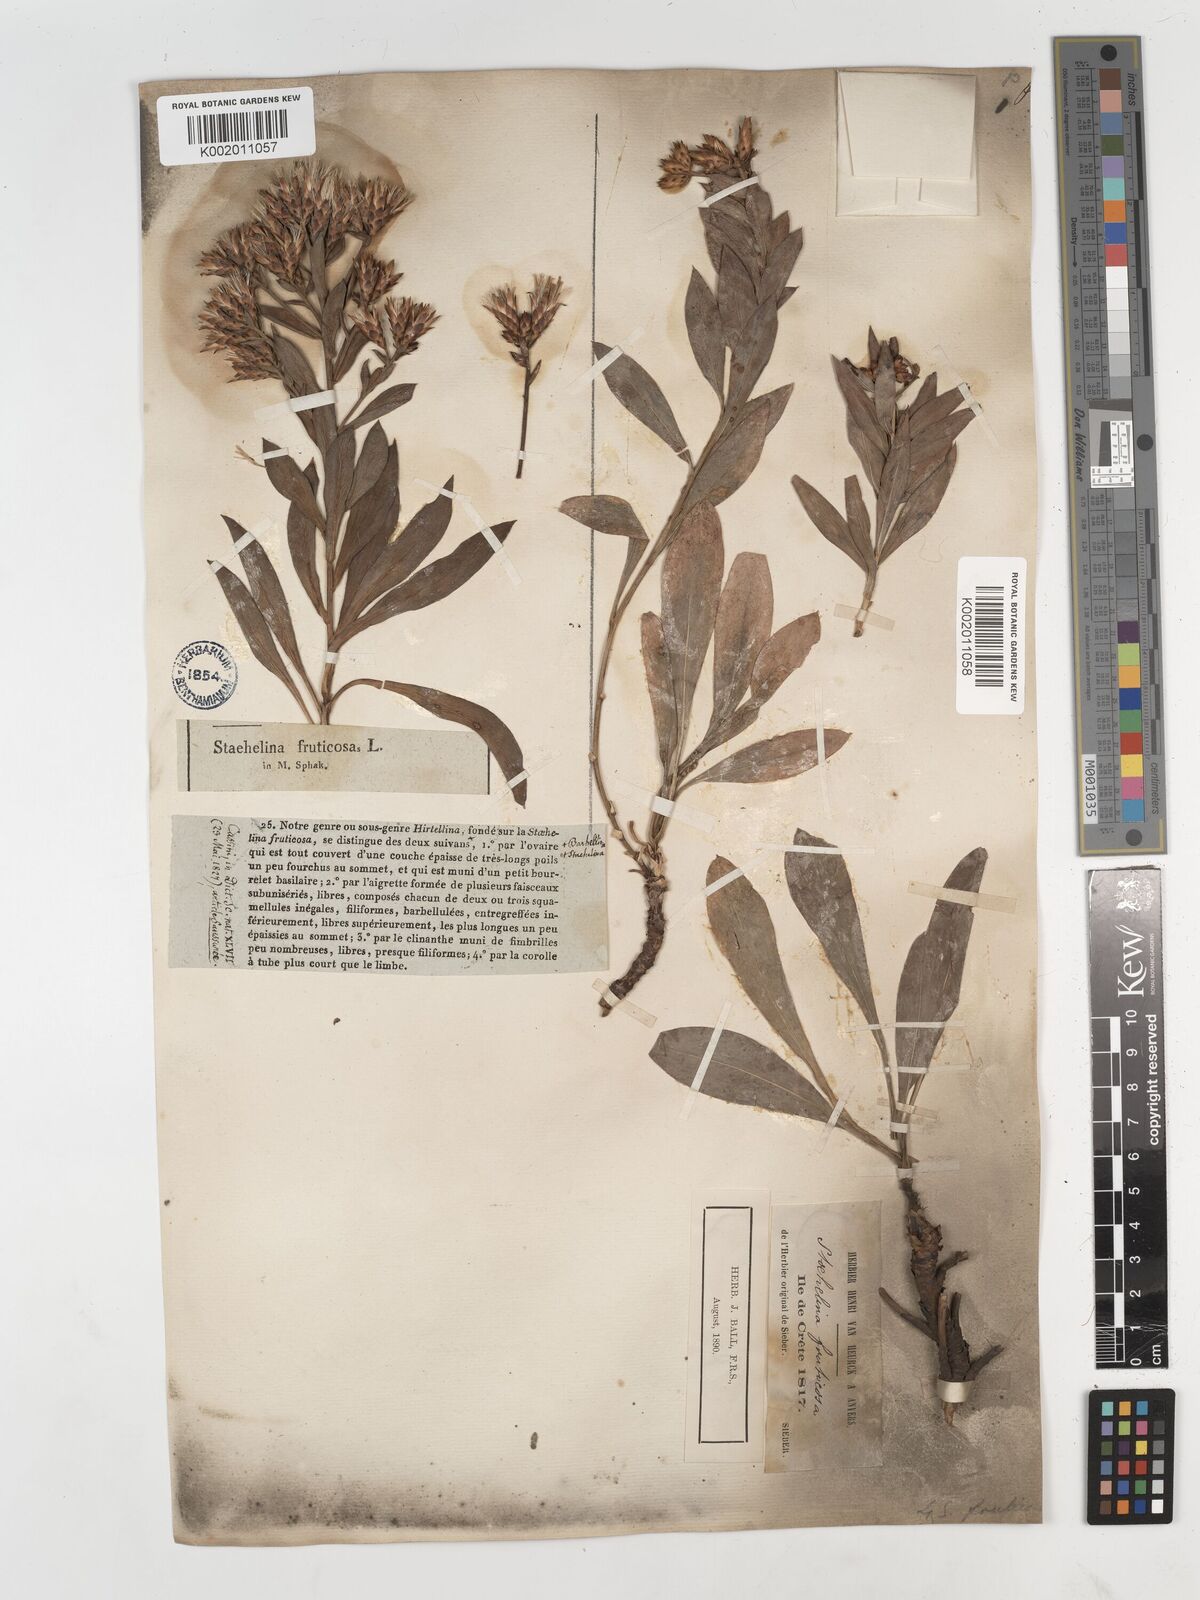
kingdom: Plantae
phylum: Tracheophyta
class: Magnoliopsida
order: Asterales
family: Asteraceae
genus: Hirtellina
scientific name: Hirtellina fruticosa
